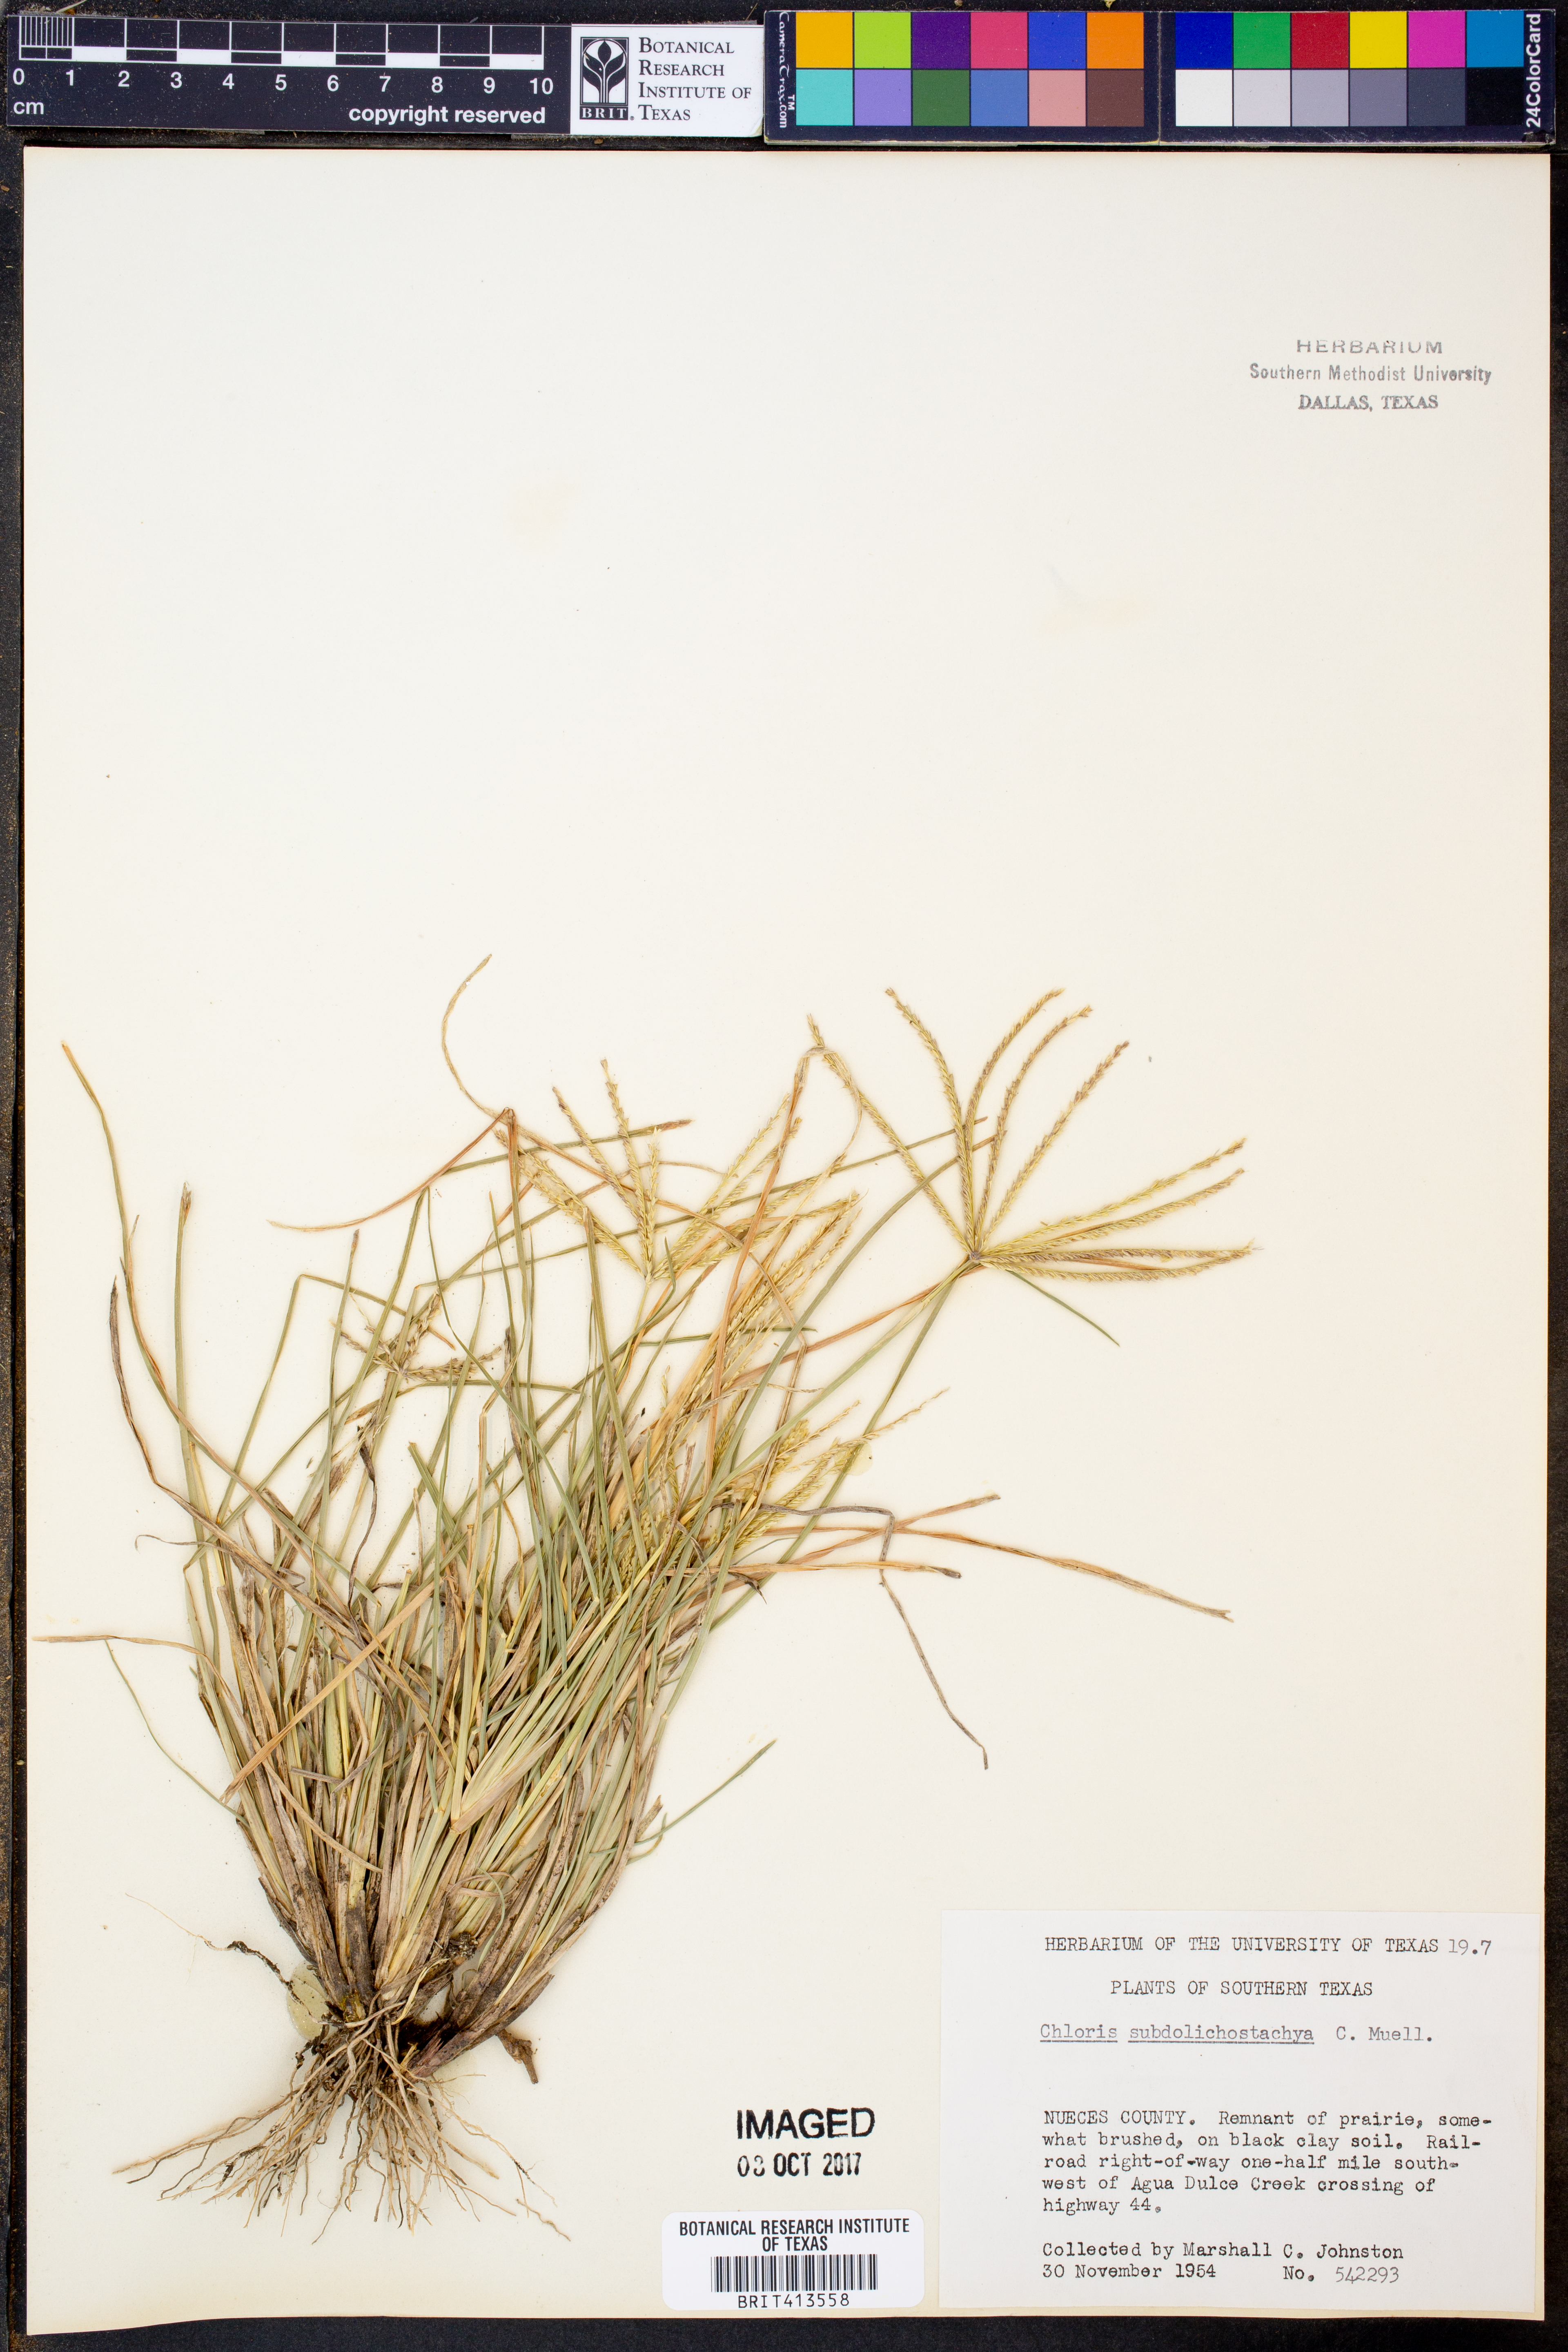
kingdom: Plantae
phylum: Tracheophyta
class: Liliopsida
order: Poales
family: Poaceae
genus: Chloris
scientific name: Chloris subdolichostachya
